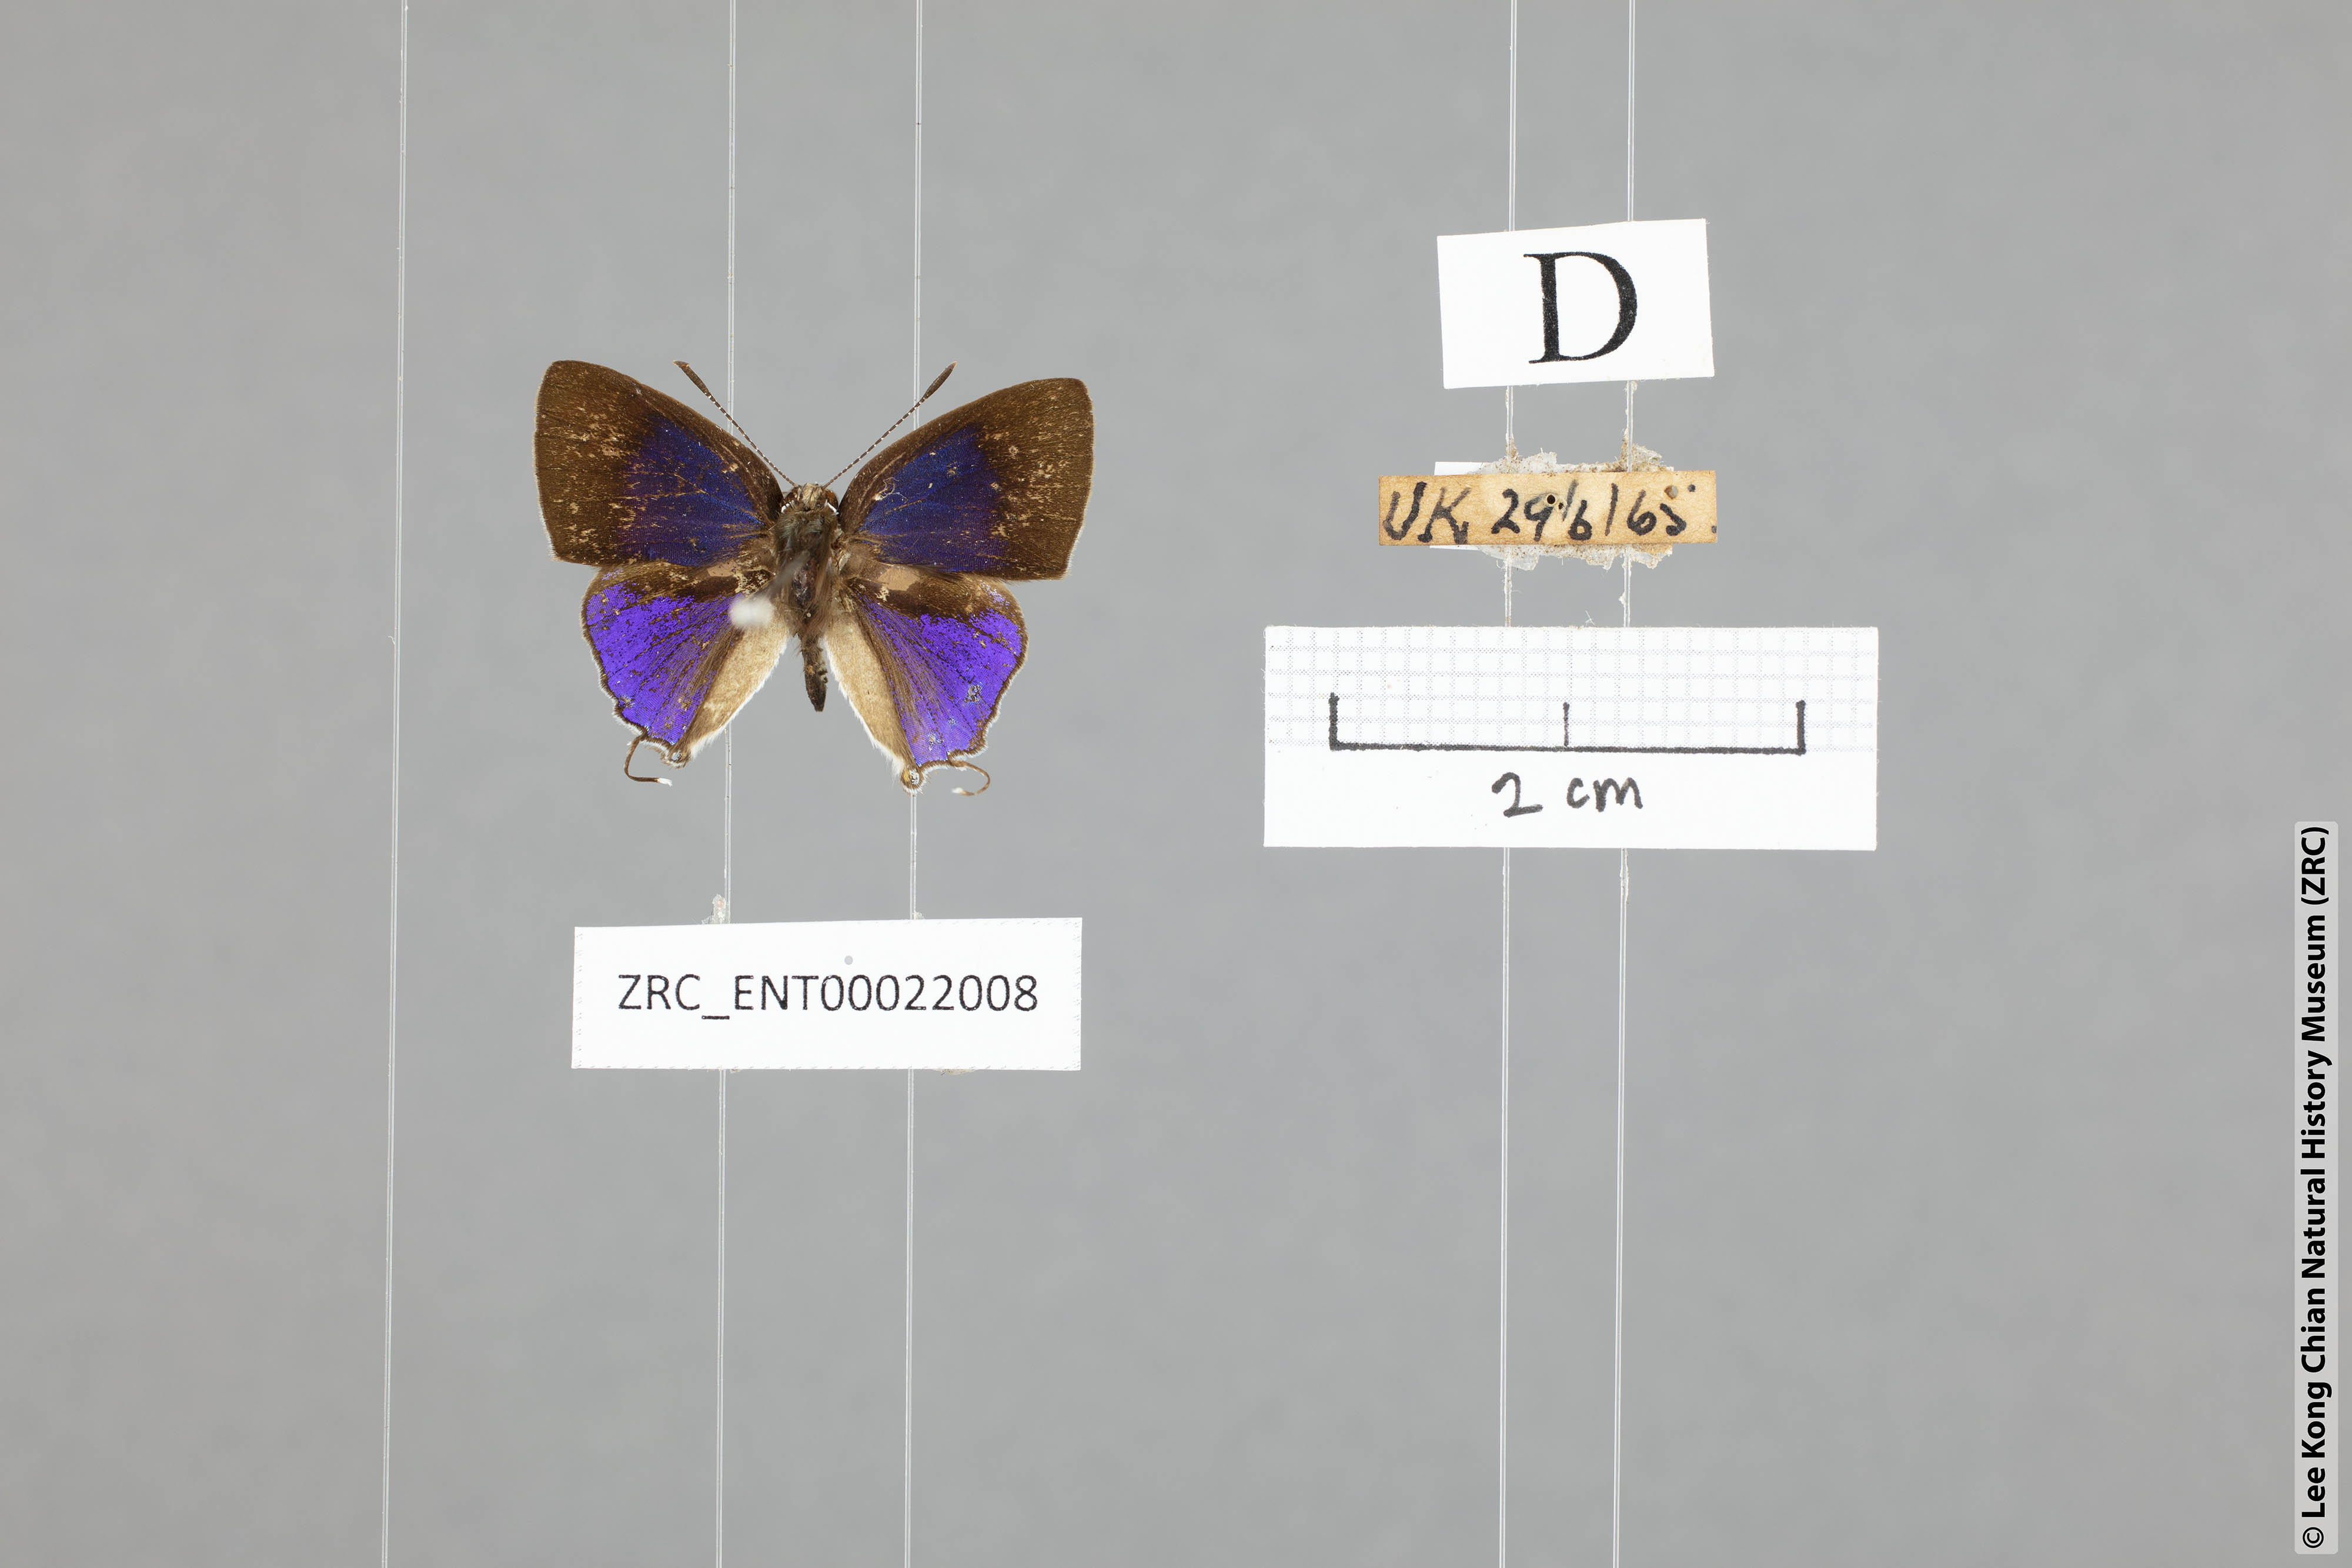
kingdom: Animalia
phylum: Arthropoda
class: Insecta
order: Lepidoptera
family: Lycaenidae
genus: Sinthusa
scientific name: Sinthusa nasaka
